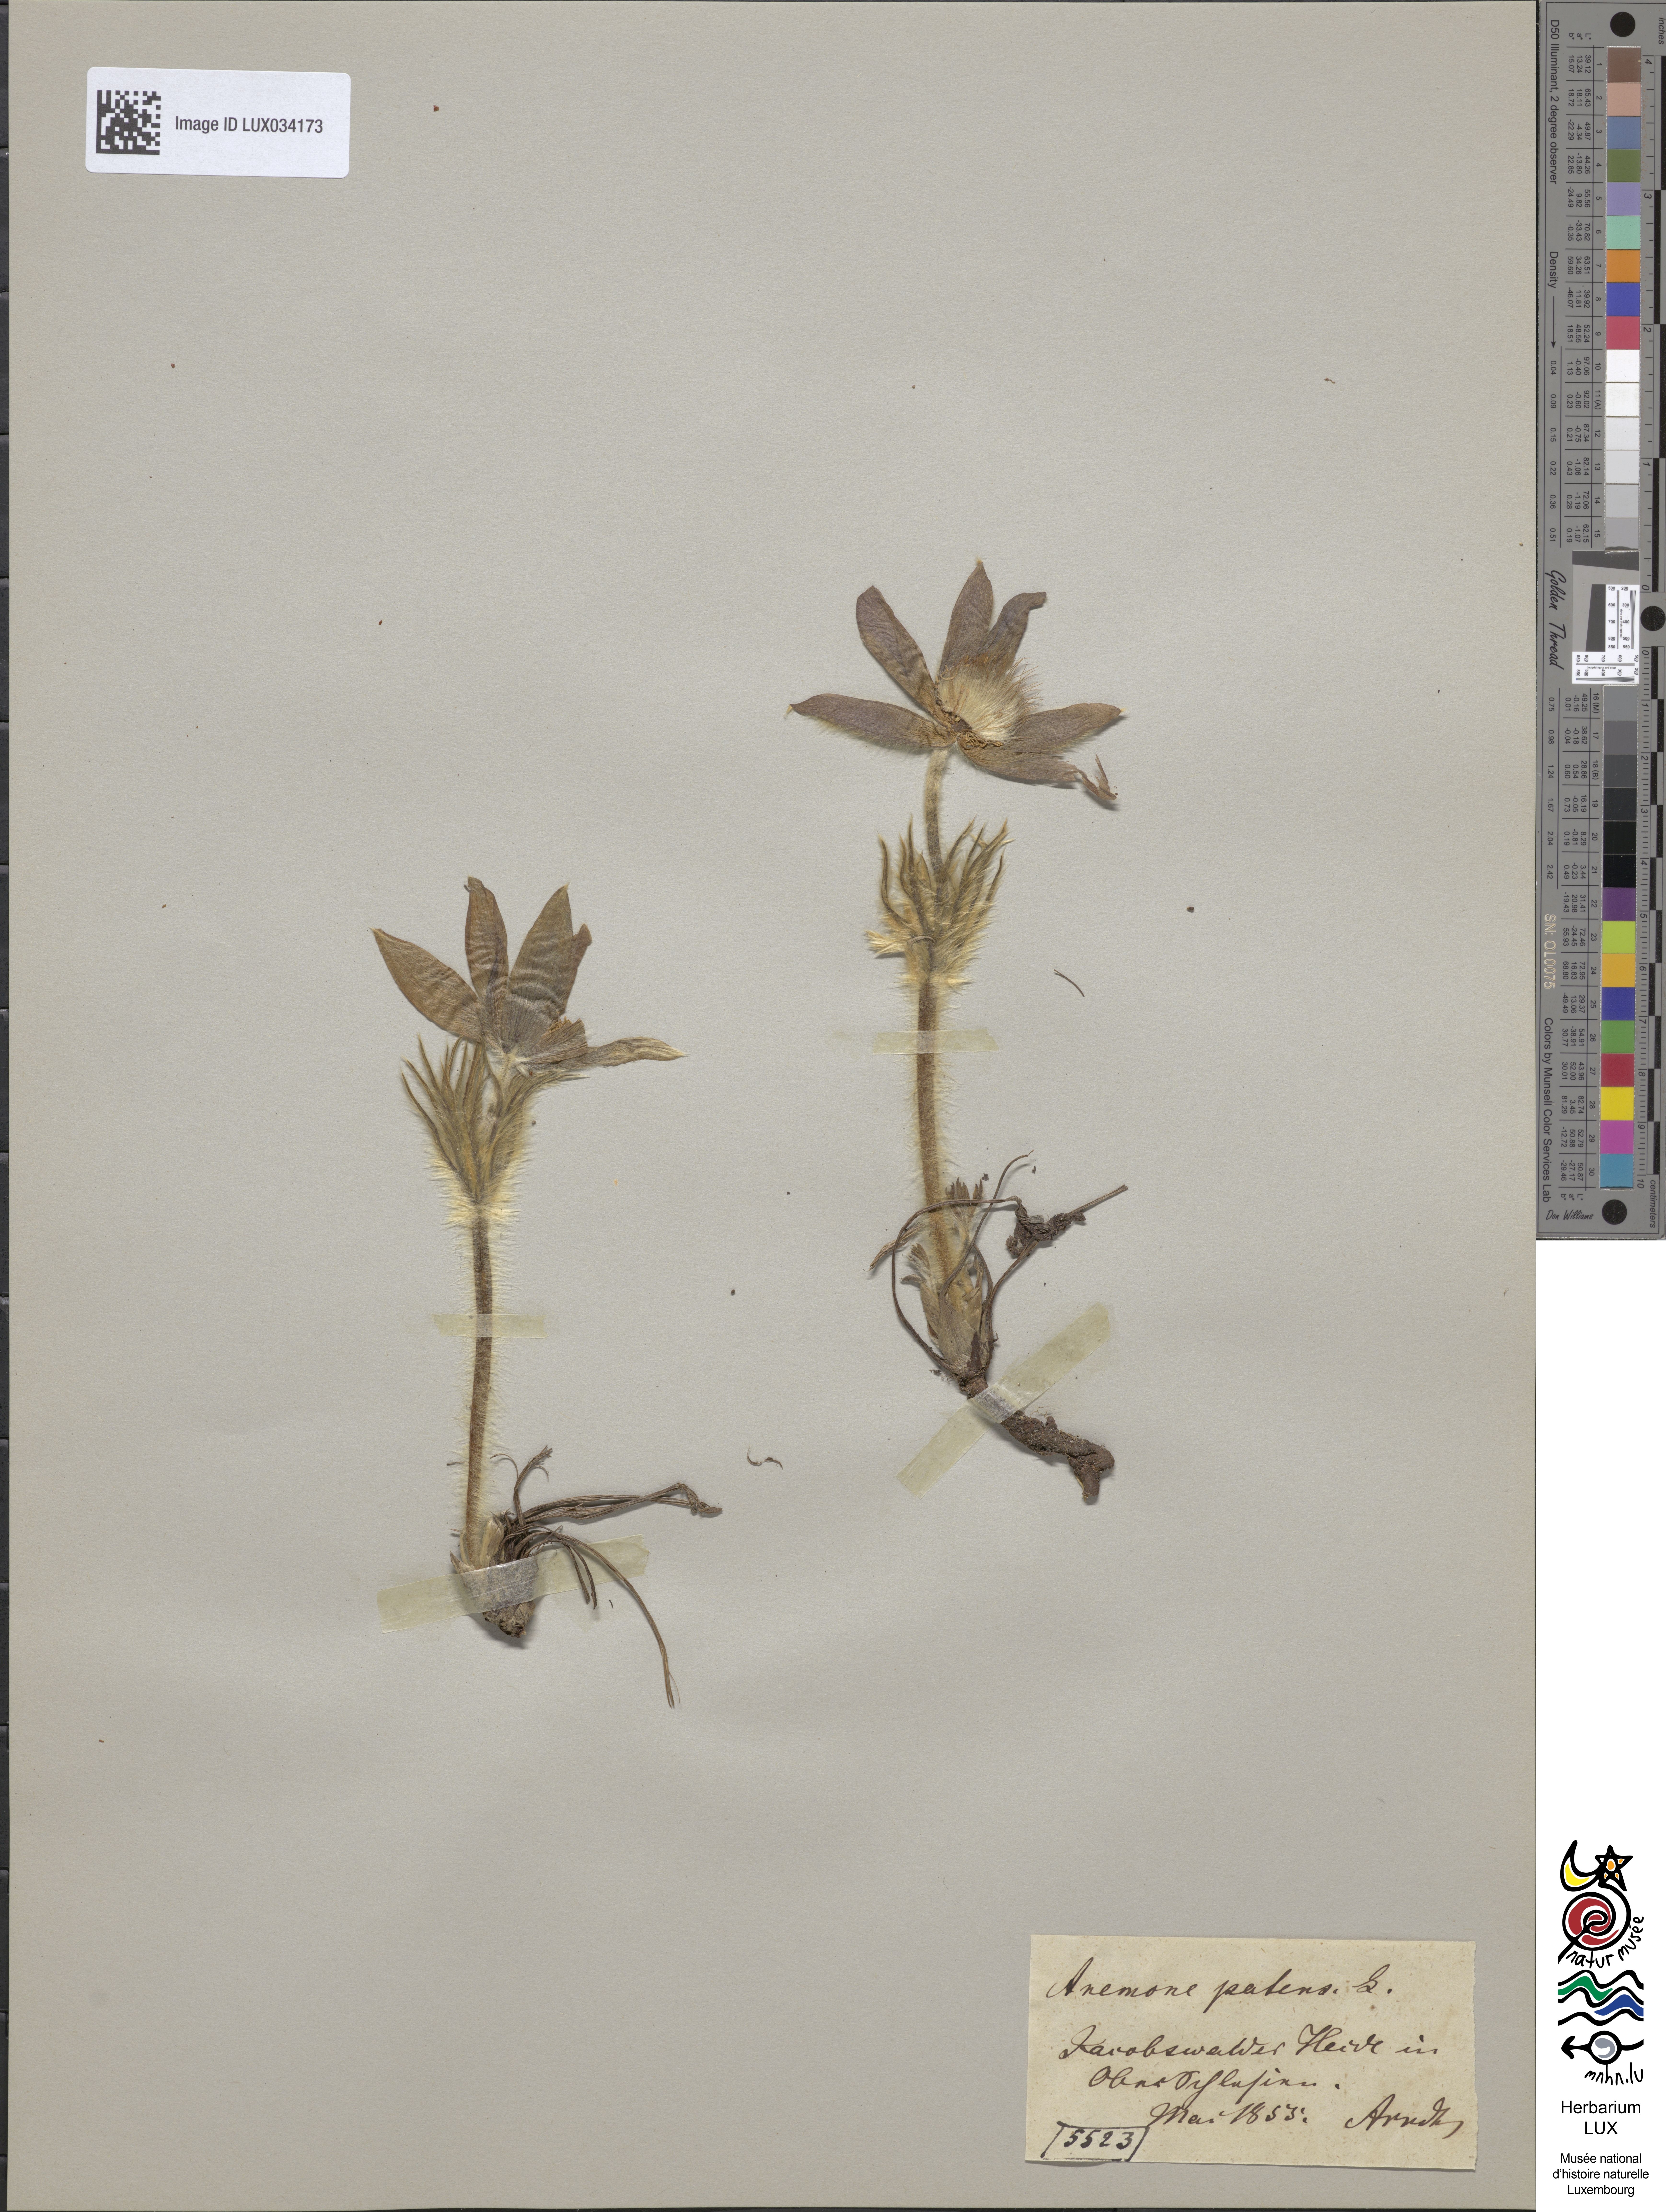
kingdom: Plantae
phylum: Tracheophyta
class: Magnoliopsida
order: Ranunculales
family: Ranunculaceae
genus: Pulsatilla
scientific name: Pulsatilla patens
